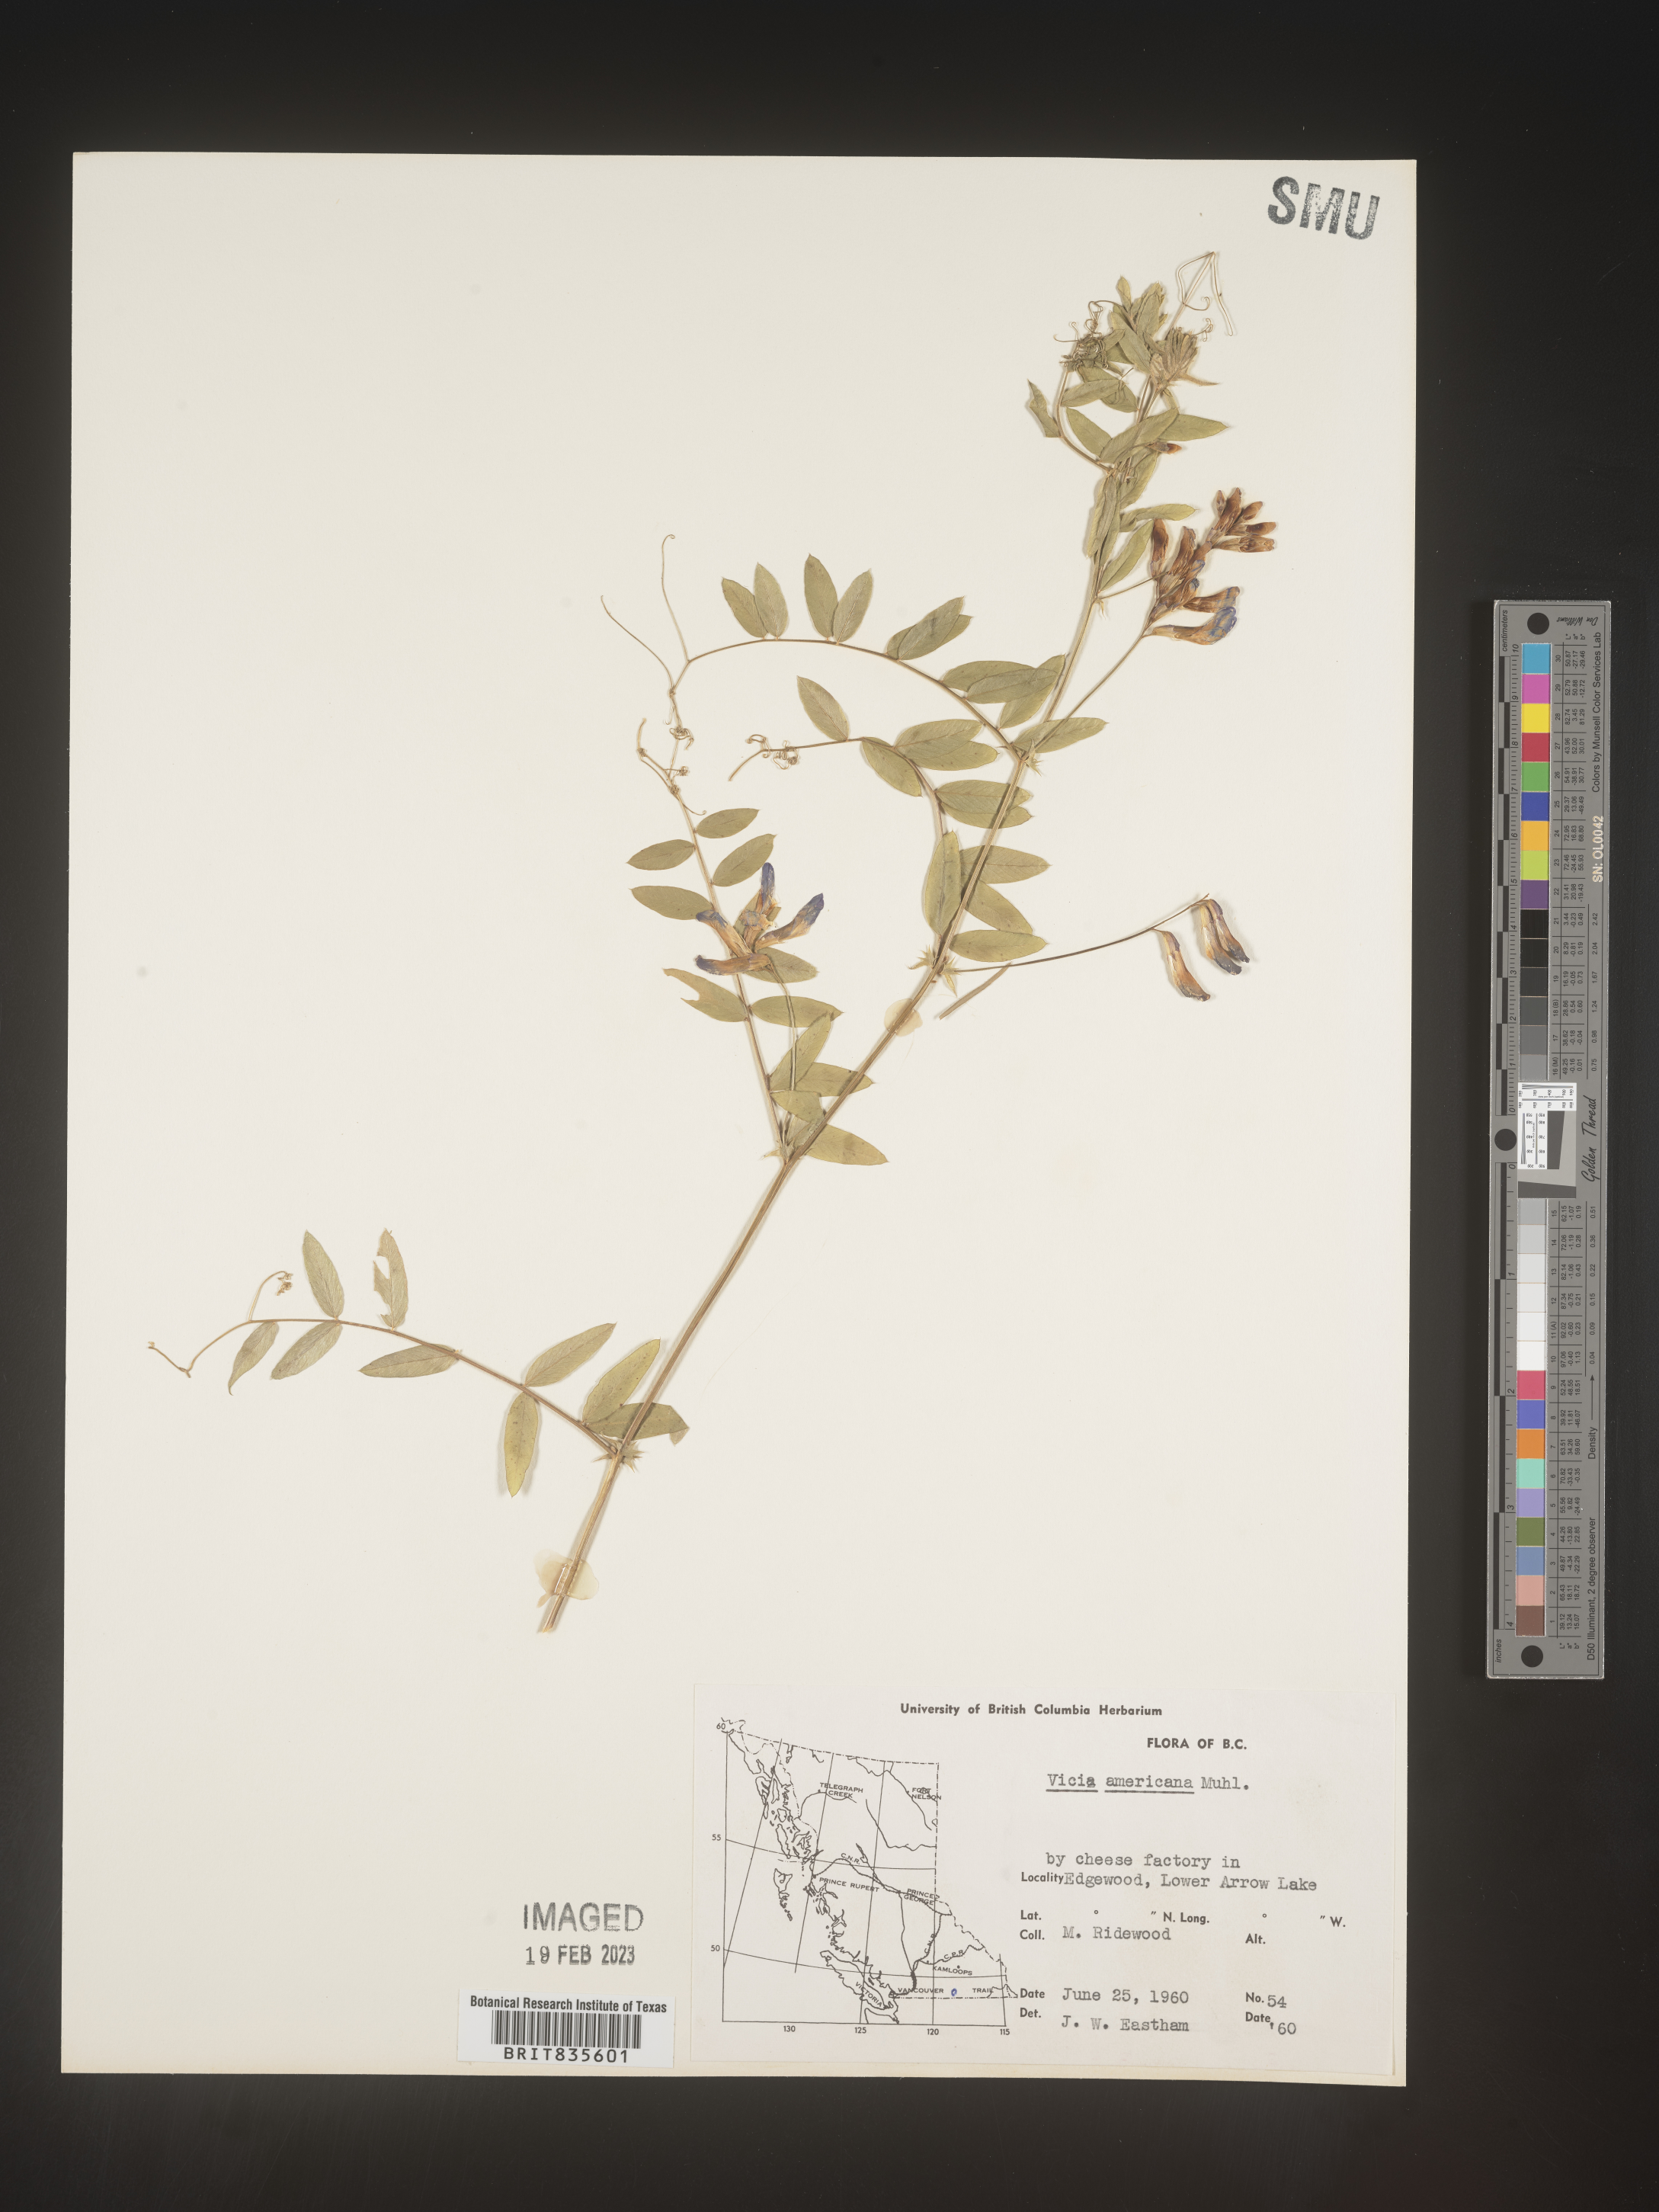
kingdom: Plantae
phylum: Tracheophyta
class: Magnoliopsida
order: Fabales
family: Fabaceae
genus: Vicia
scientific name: Vicia americana
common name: American vetch
